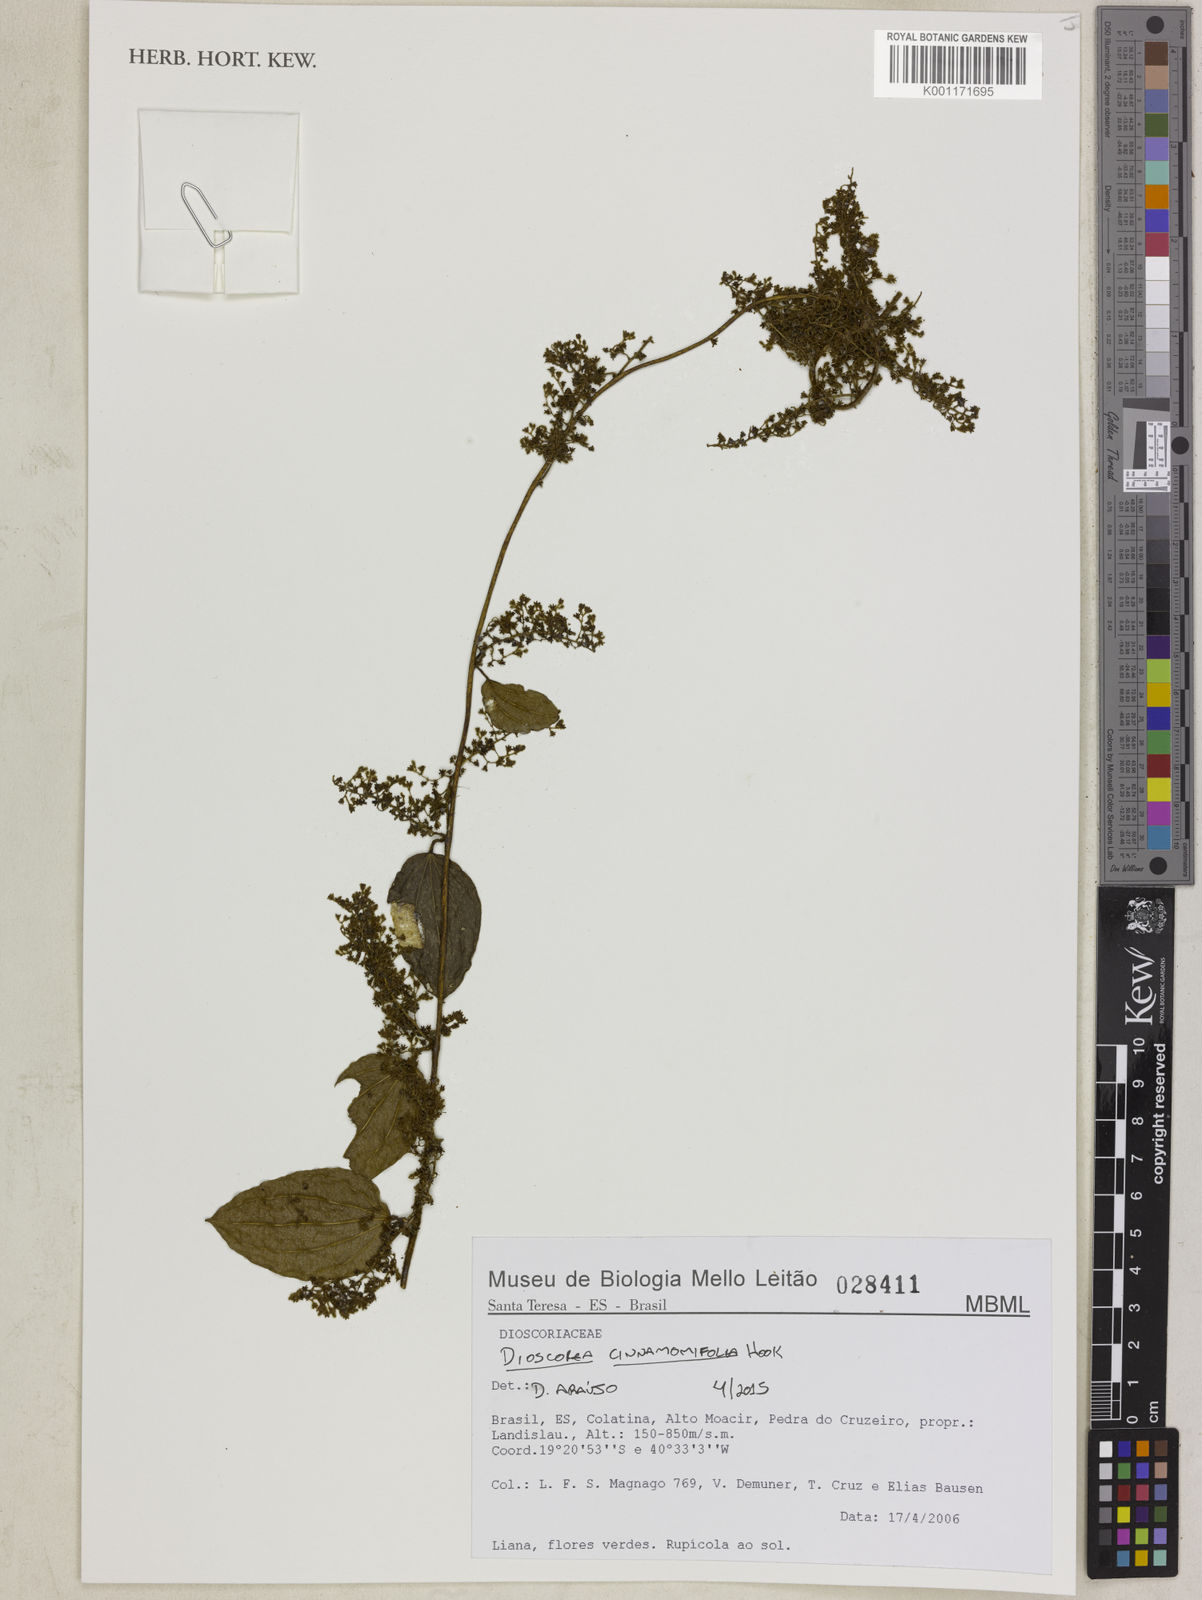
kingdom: Plantae
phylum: Tracheophyta
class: Liliopsida
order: Dioscoreales
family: Dioscoreaceae
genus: Dioscorea
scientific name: Dioscorea cinnamomifolia
